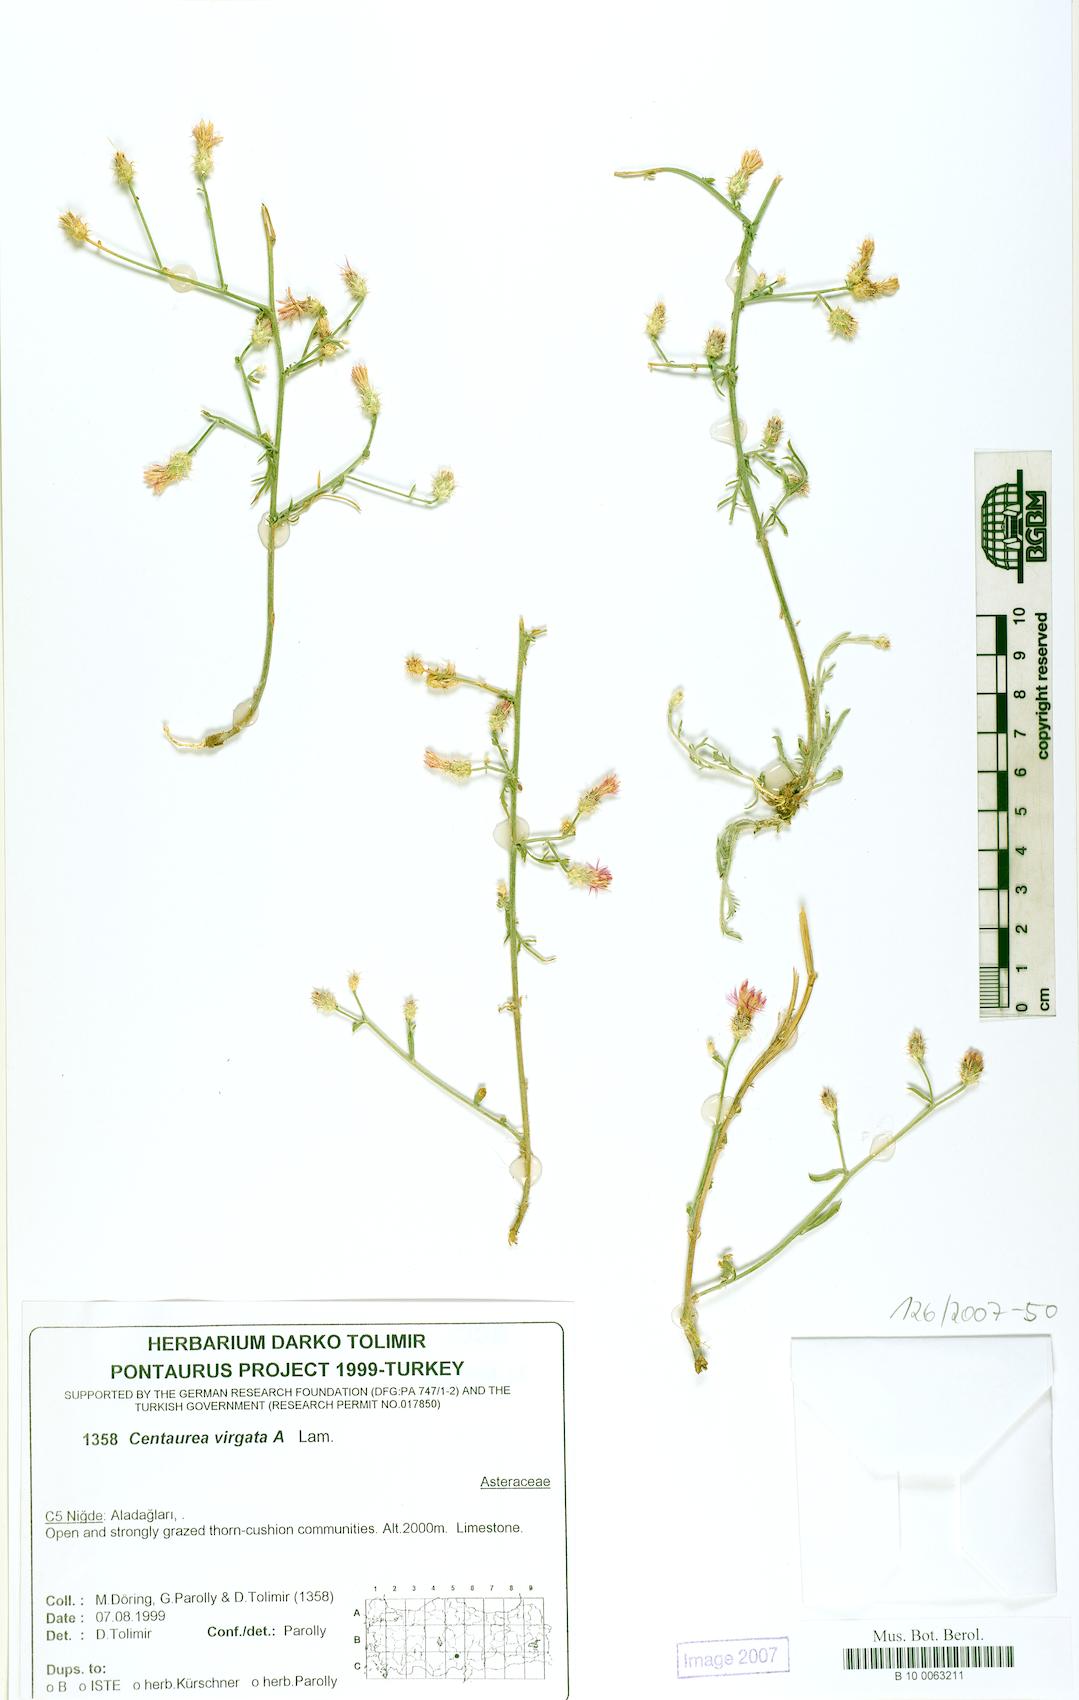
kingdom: Plantae
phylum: Tracheophyta
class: Magnoliopsida
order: Asterales
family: Asteraceae
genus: Centaurea
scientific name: Centaurea virgata
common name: Squarrose knapweed
